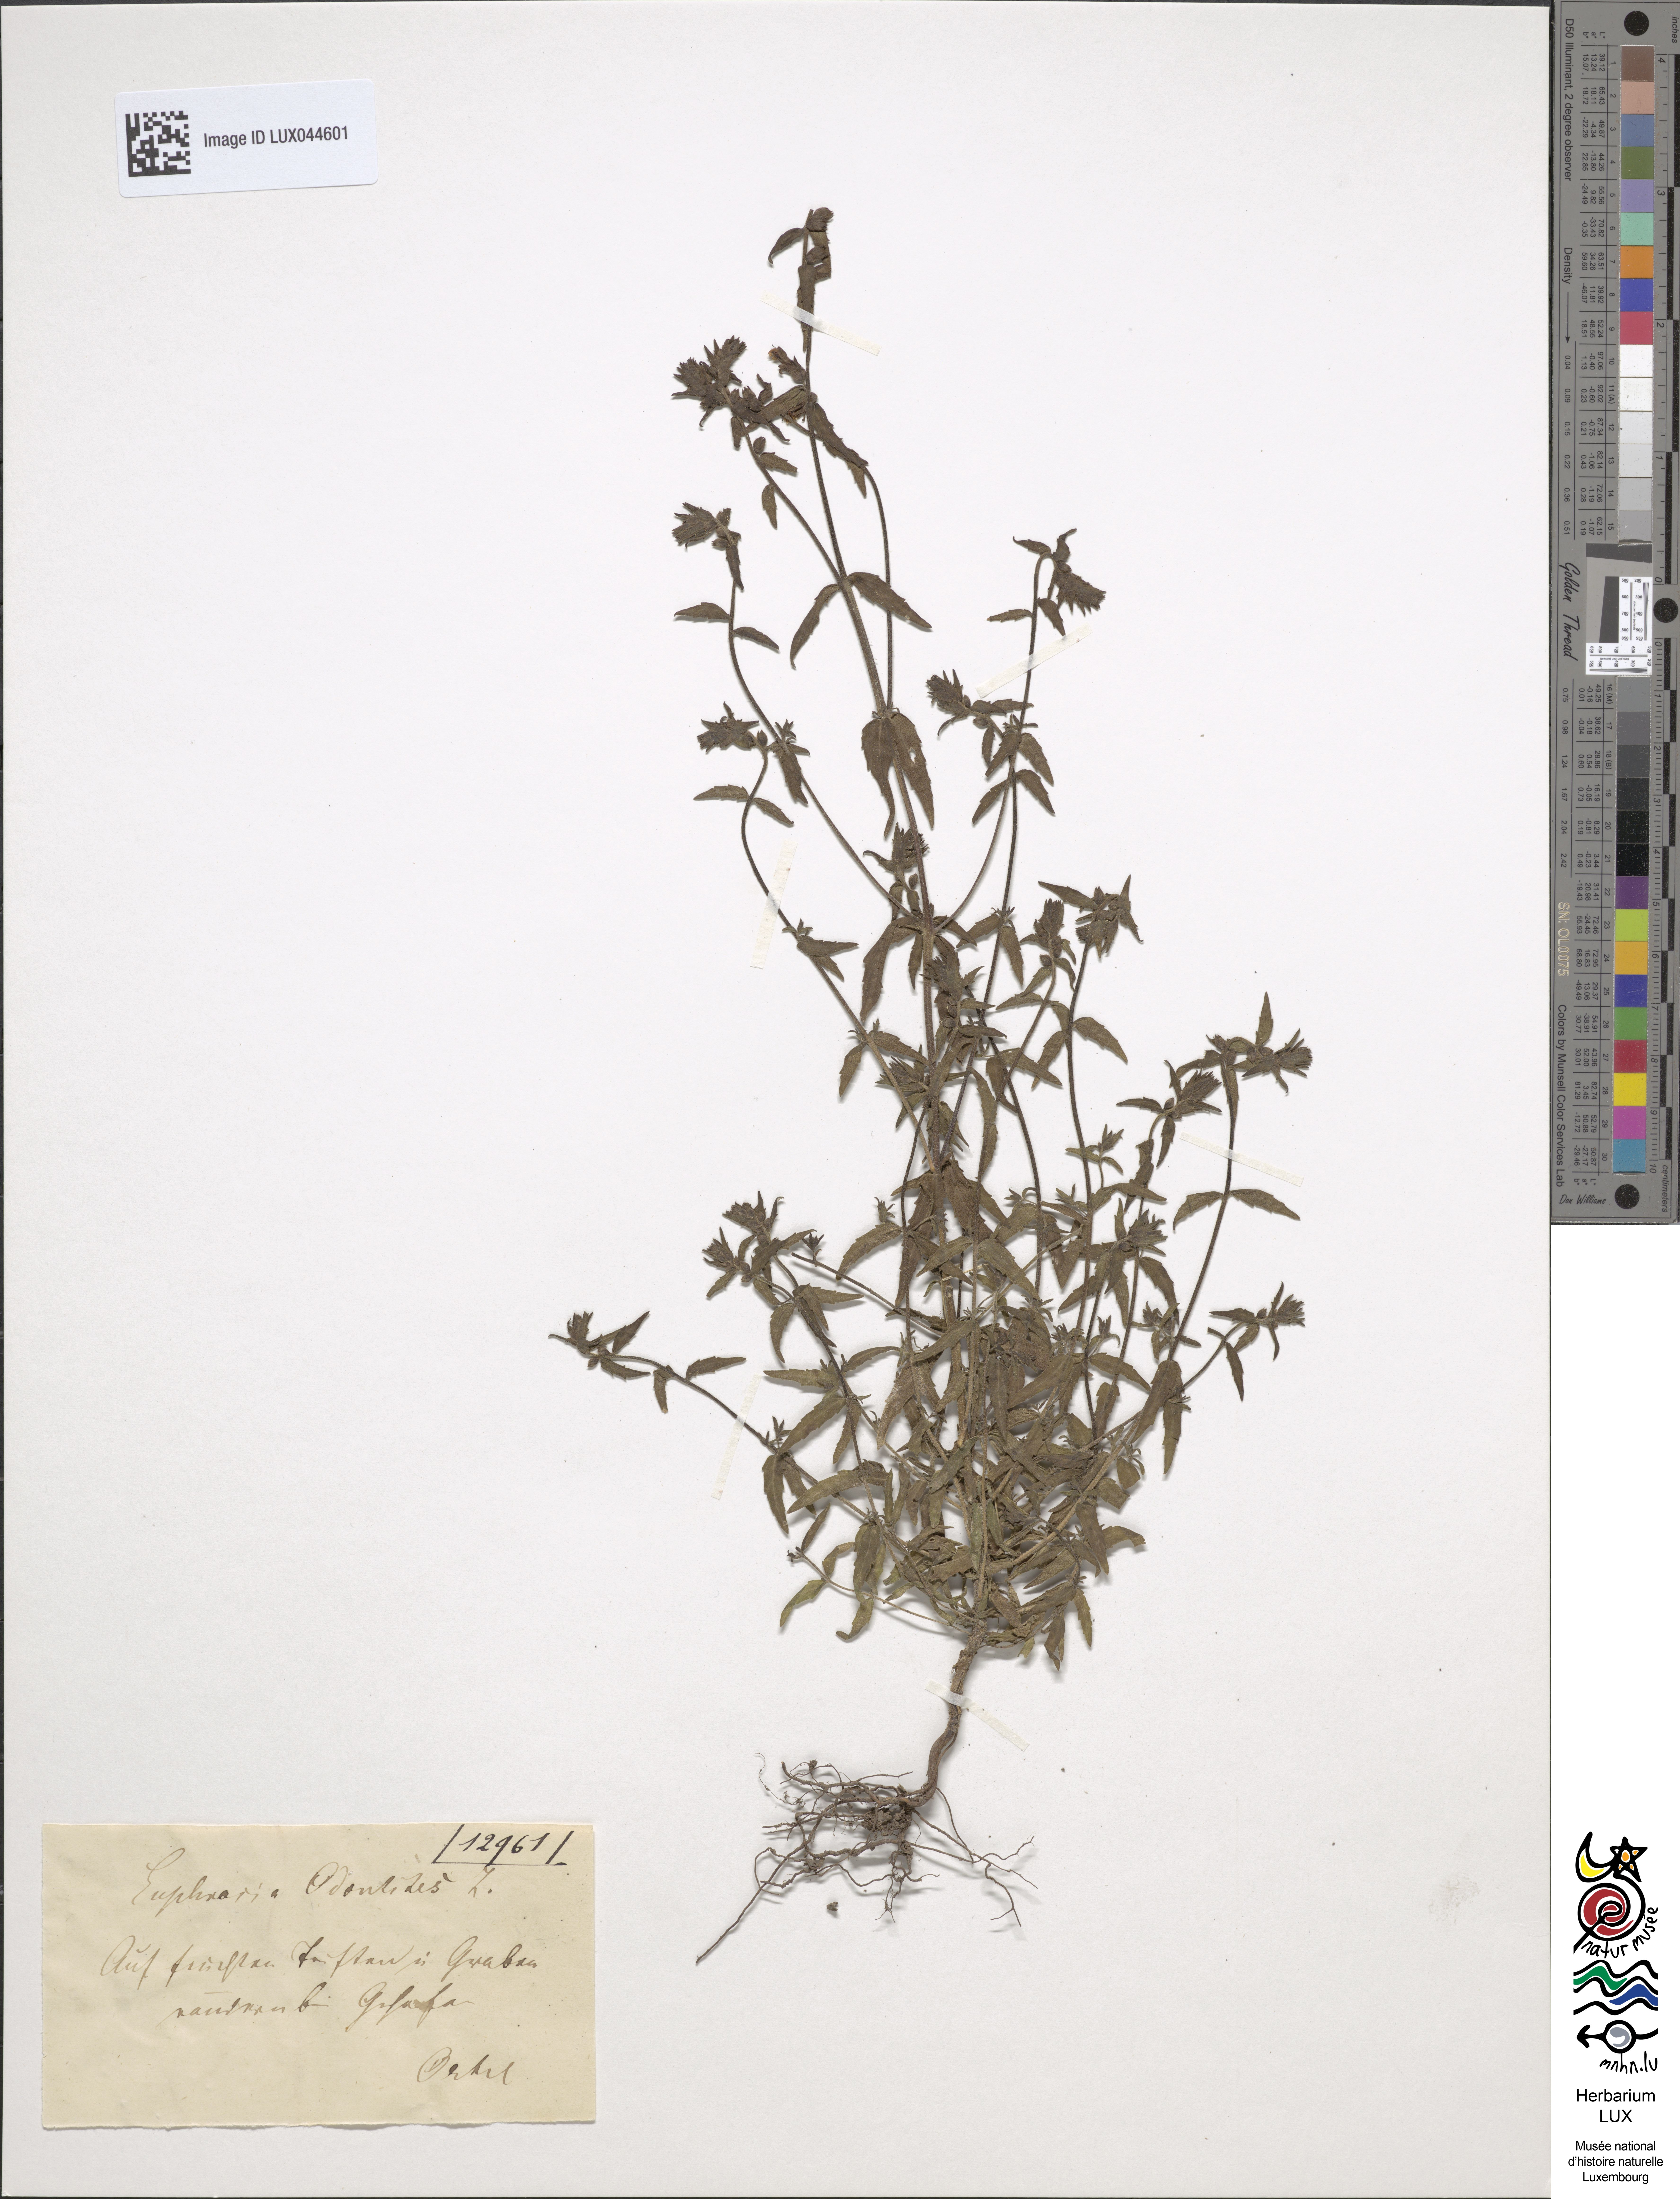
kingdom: Plantae
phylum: Tracheophyta
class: Magnoliopsida
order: Lamiales
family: Orobanchaceae
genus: Odontites
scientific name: Odontites vulgaris
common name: Broomrape
